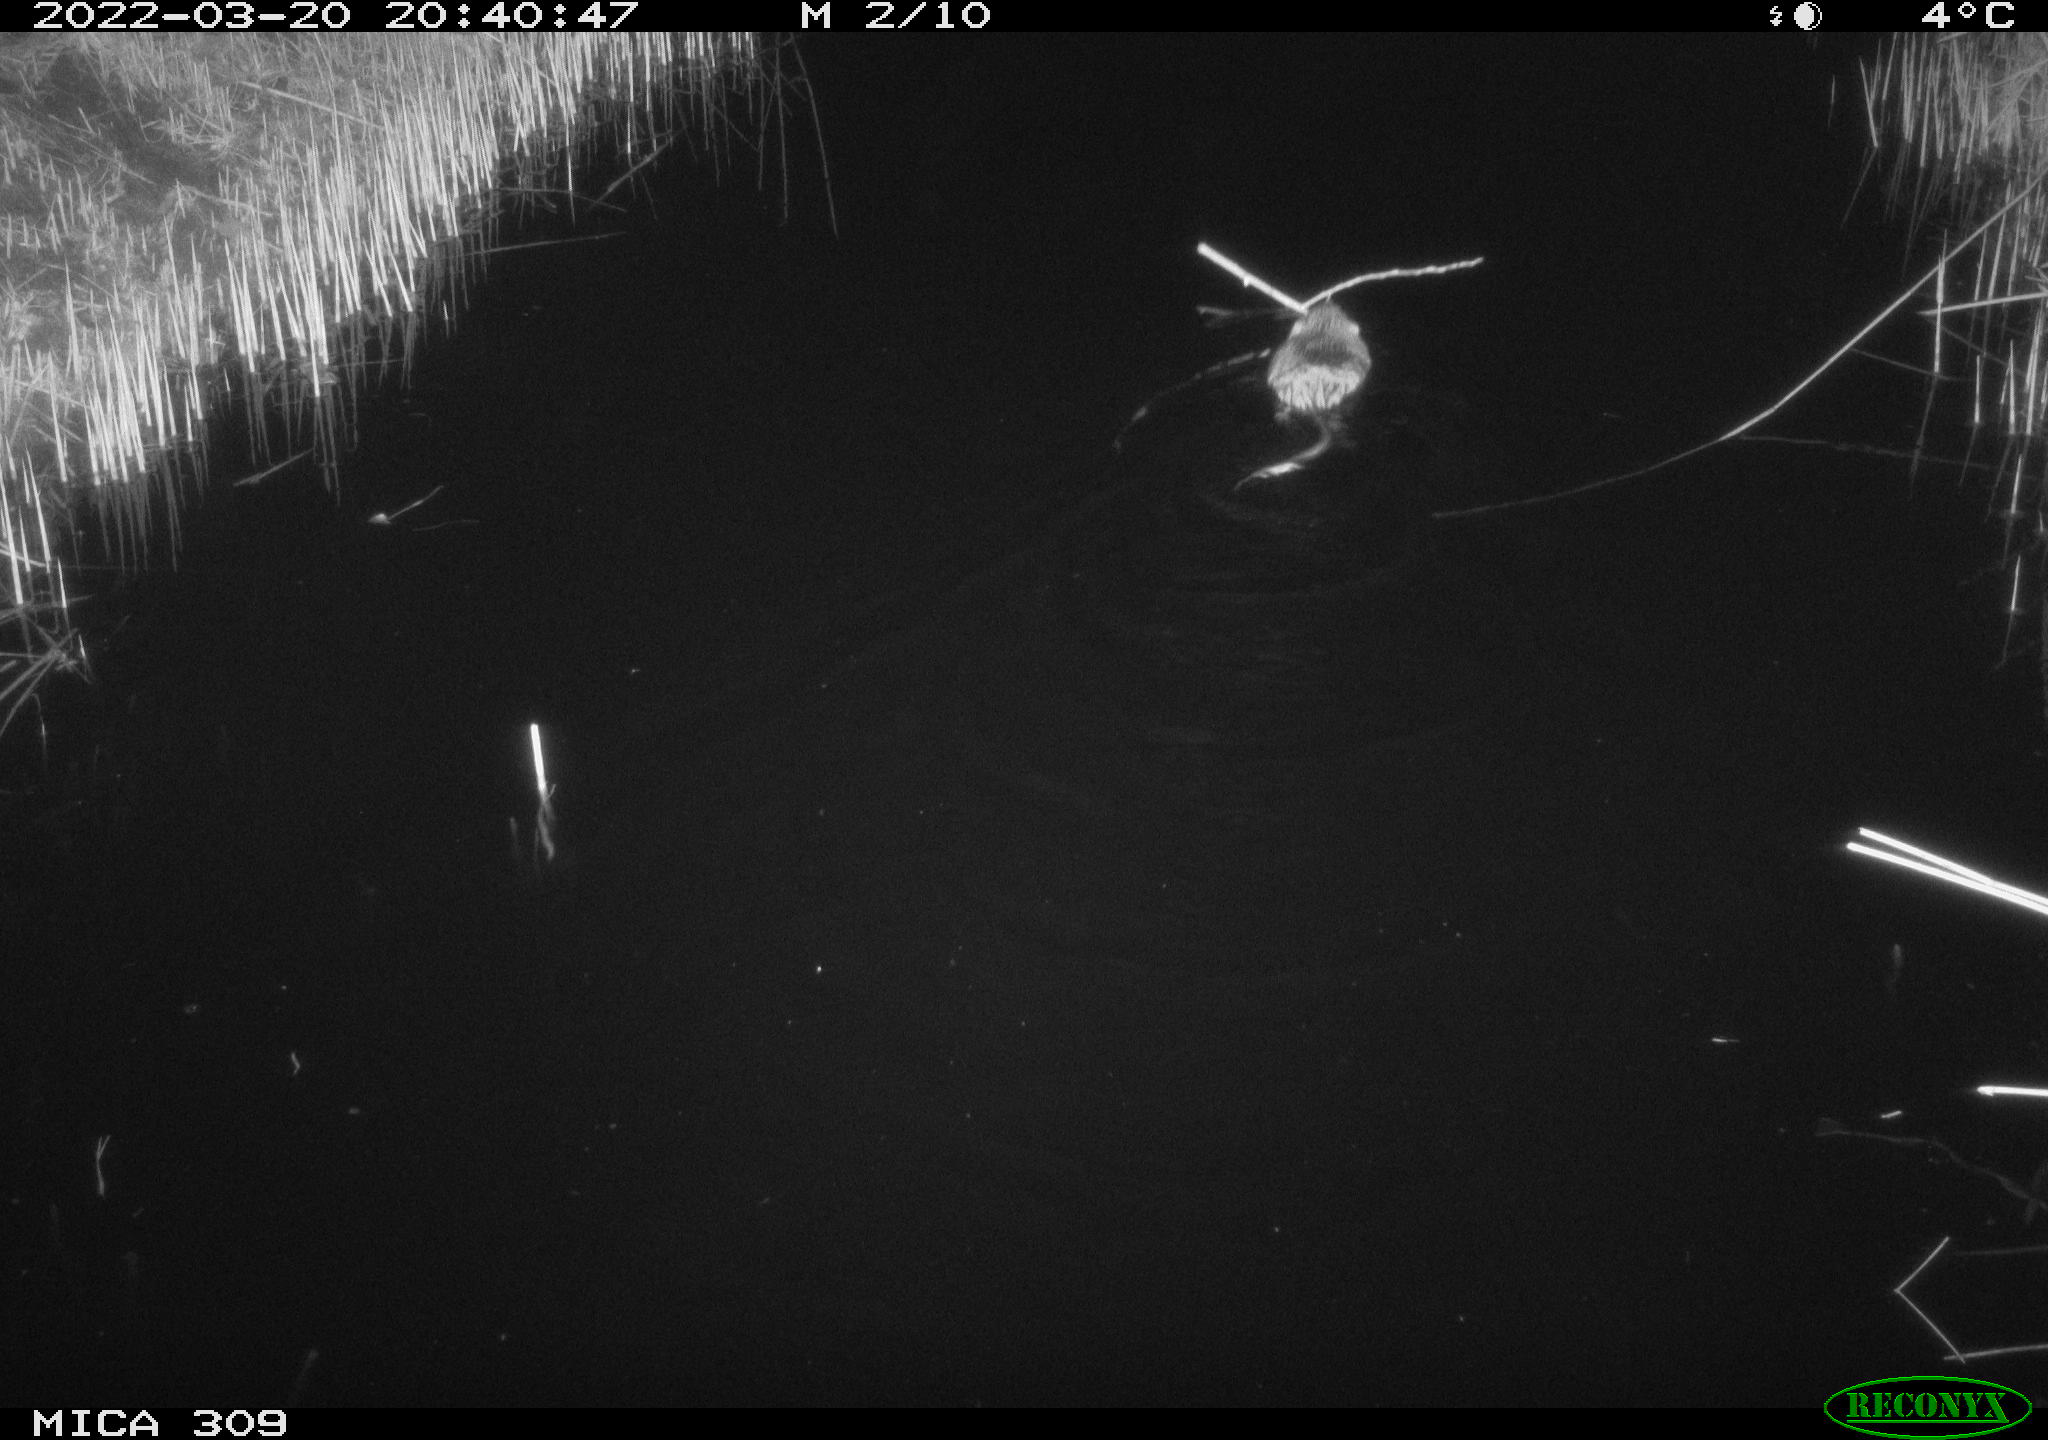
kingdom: Animalia
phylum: Chordata
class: Mammalia
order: Rodentia
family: Cricetidae
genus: Ondatra
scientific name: Ondatra zibethicus
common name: Muskrat
